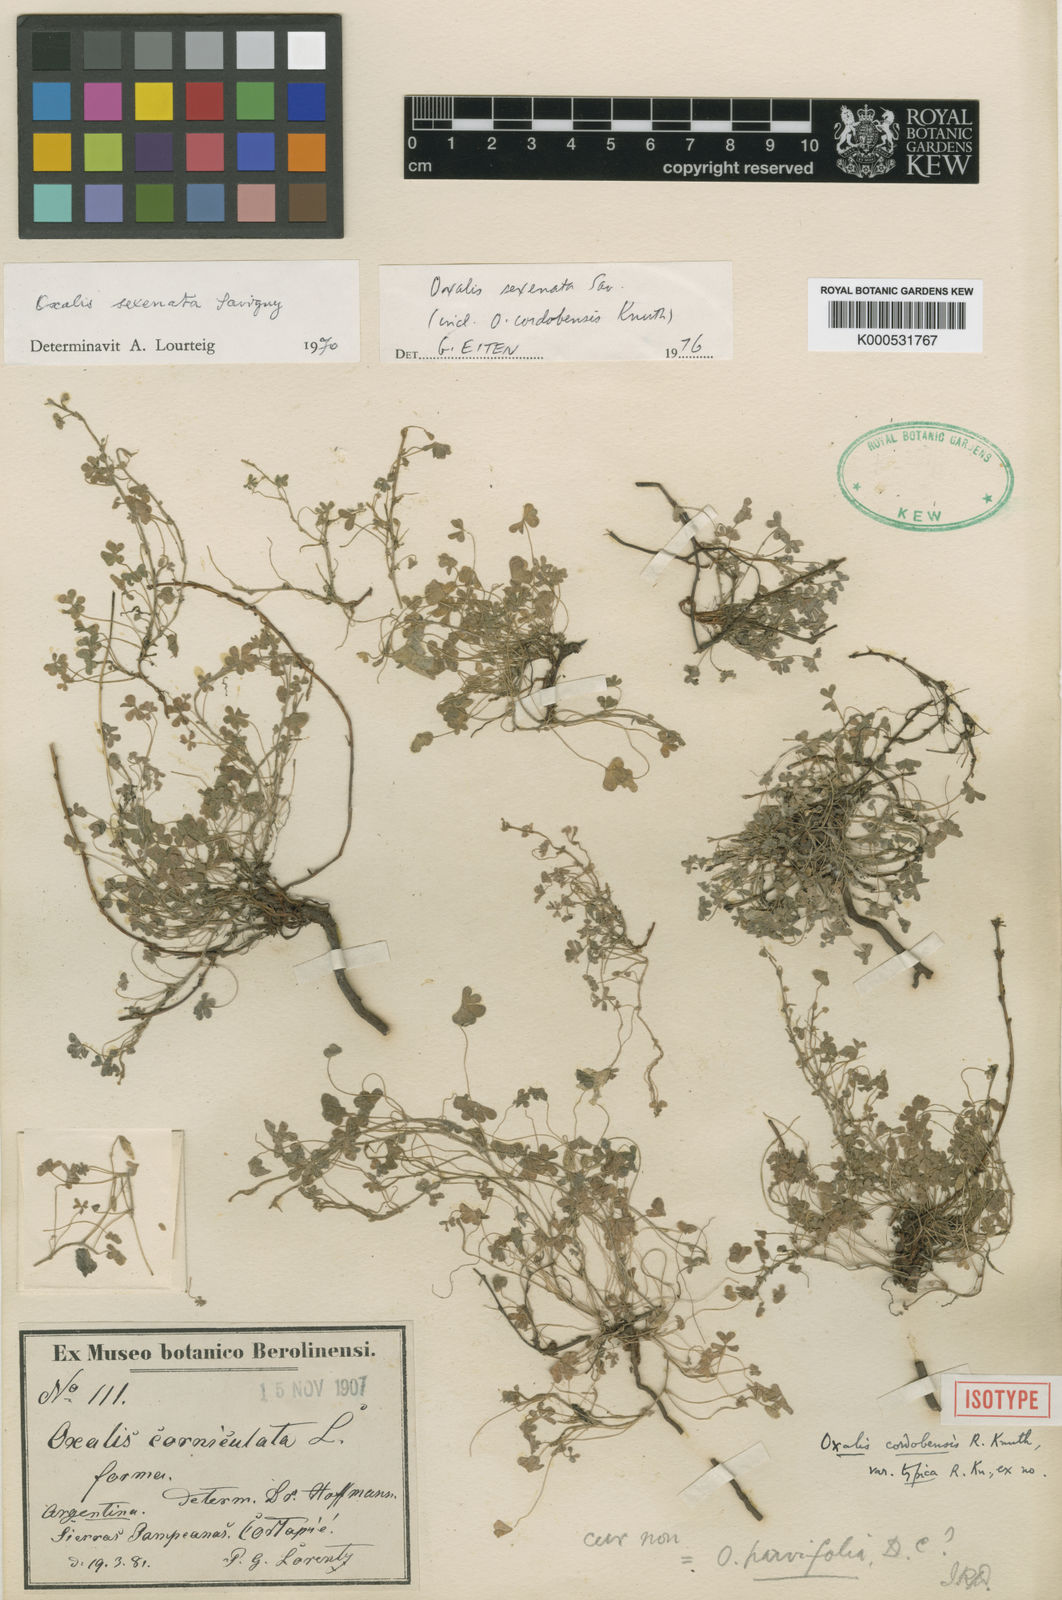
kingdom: Plantae
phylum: Tracheophyta
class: Magnoliopsida
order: Oxalidales
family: Oxalidaceae
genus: Oxalis
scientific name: Oxalis conorrhiza
